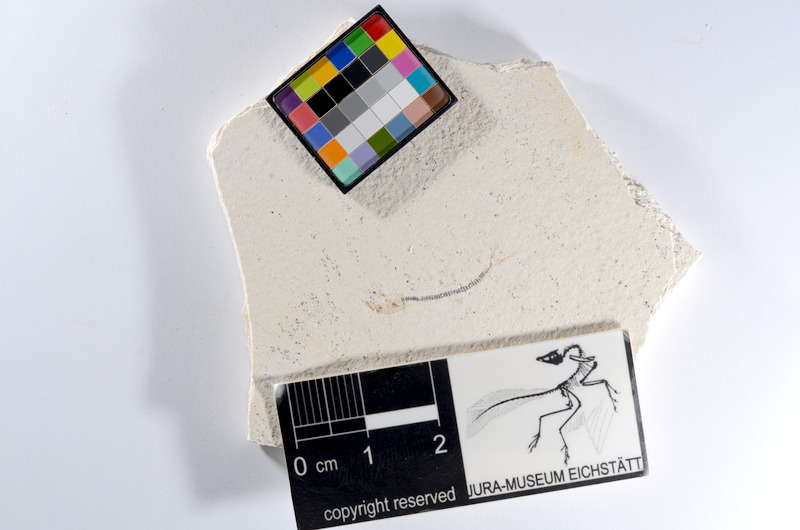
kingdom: Animalia
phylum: Chordata
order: Salmoniformes
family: Orthogonikleithridae
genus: Orthogonikleithrus
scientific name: Orthogonikleithrus hoelli
